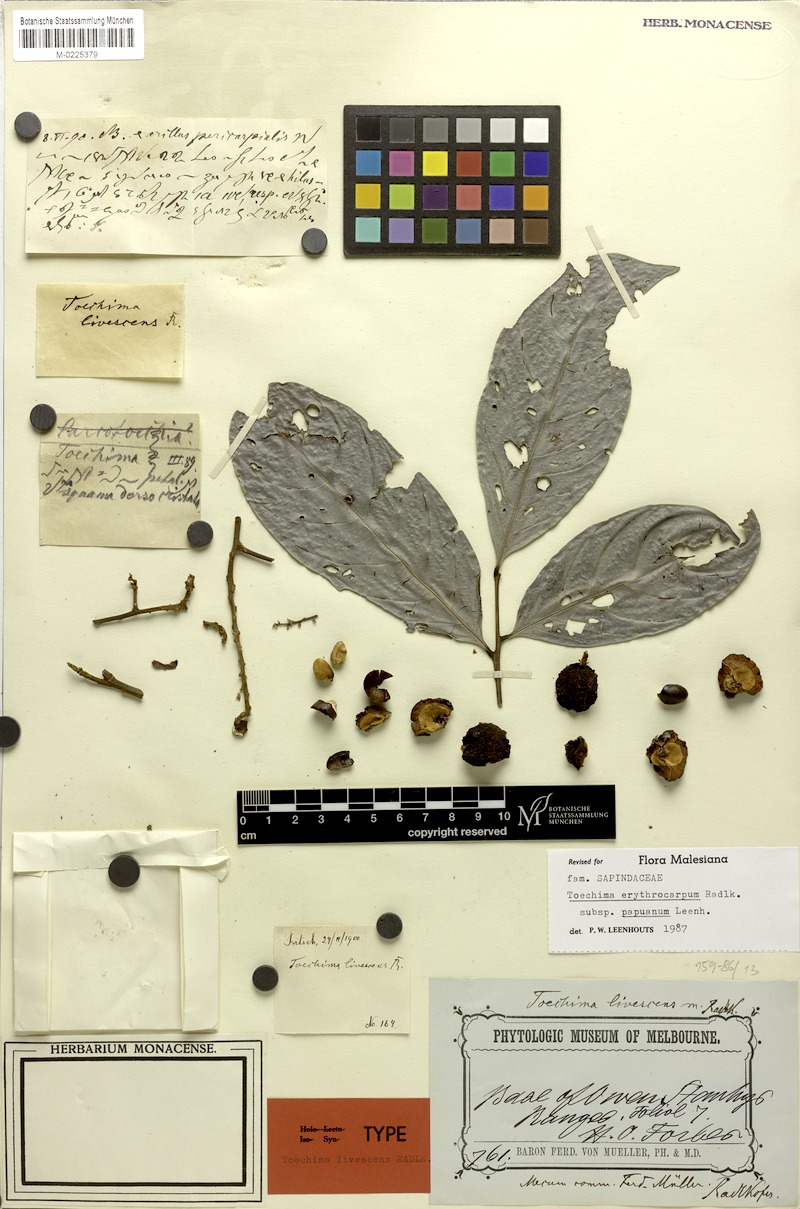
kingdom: Plantae
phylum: Tracheophyta
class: Magnoliopsida
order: Sapindales
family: Sapindaceae
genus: Toechima
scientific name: Toechima erythrocarpum
